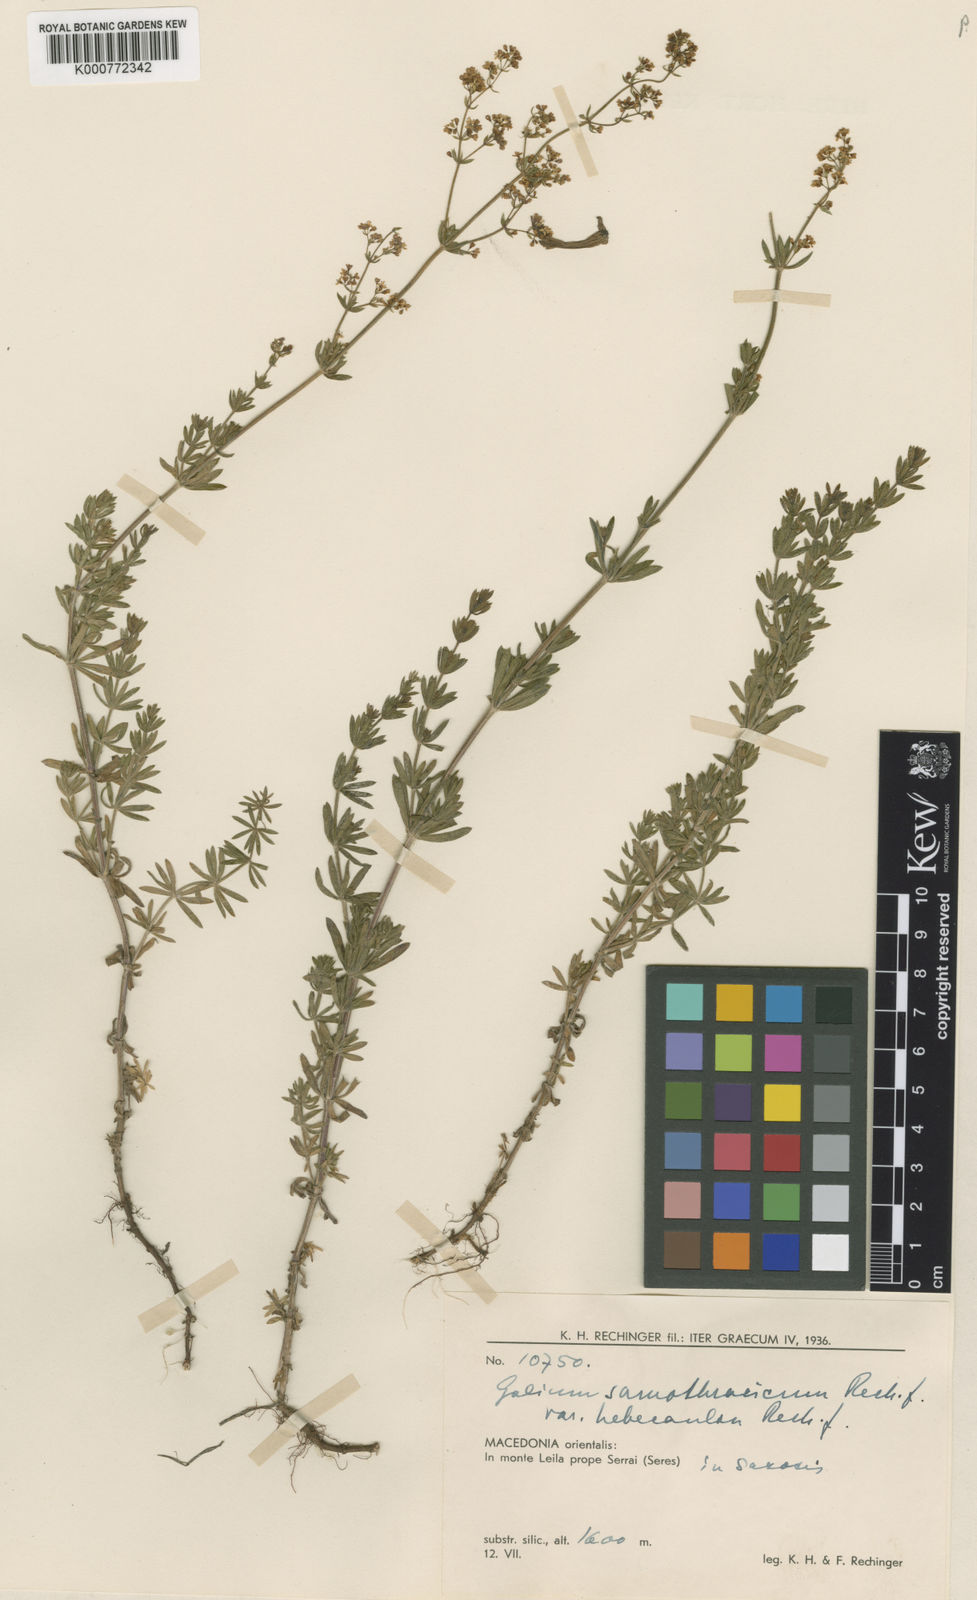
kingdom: Plantae
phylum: Tracheophyta
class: Magnoliopsida
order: Gentianales
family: Rubiaceae
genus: Galium
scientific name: Galium samothracicum
